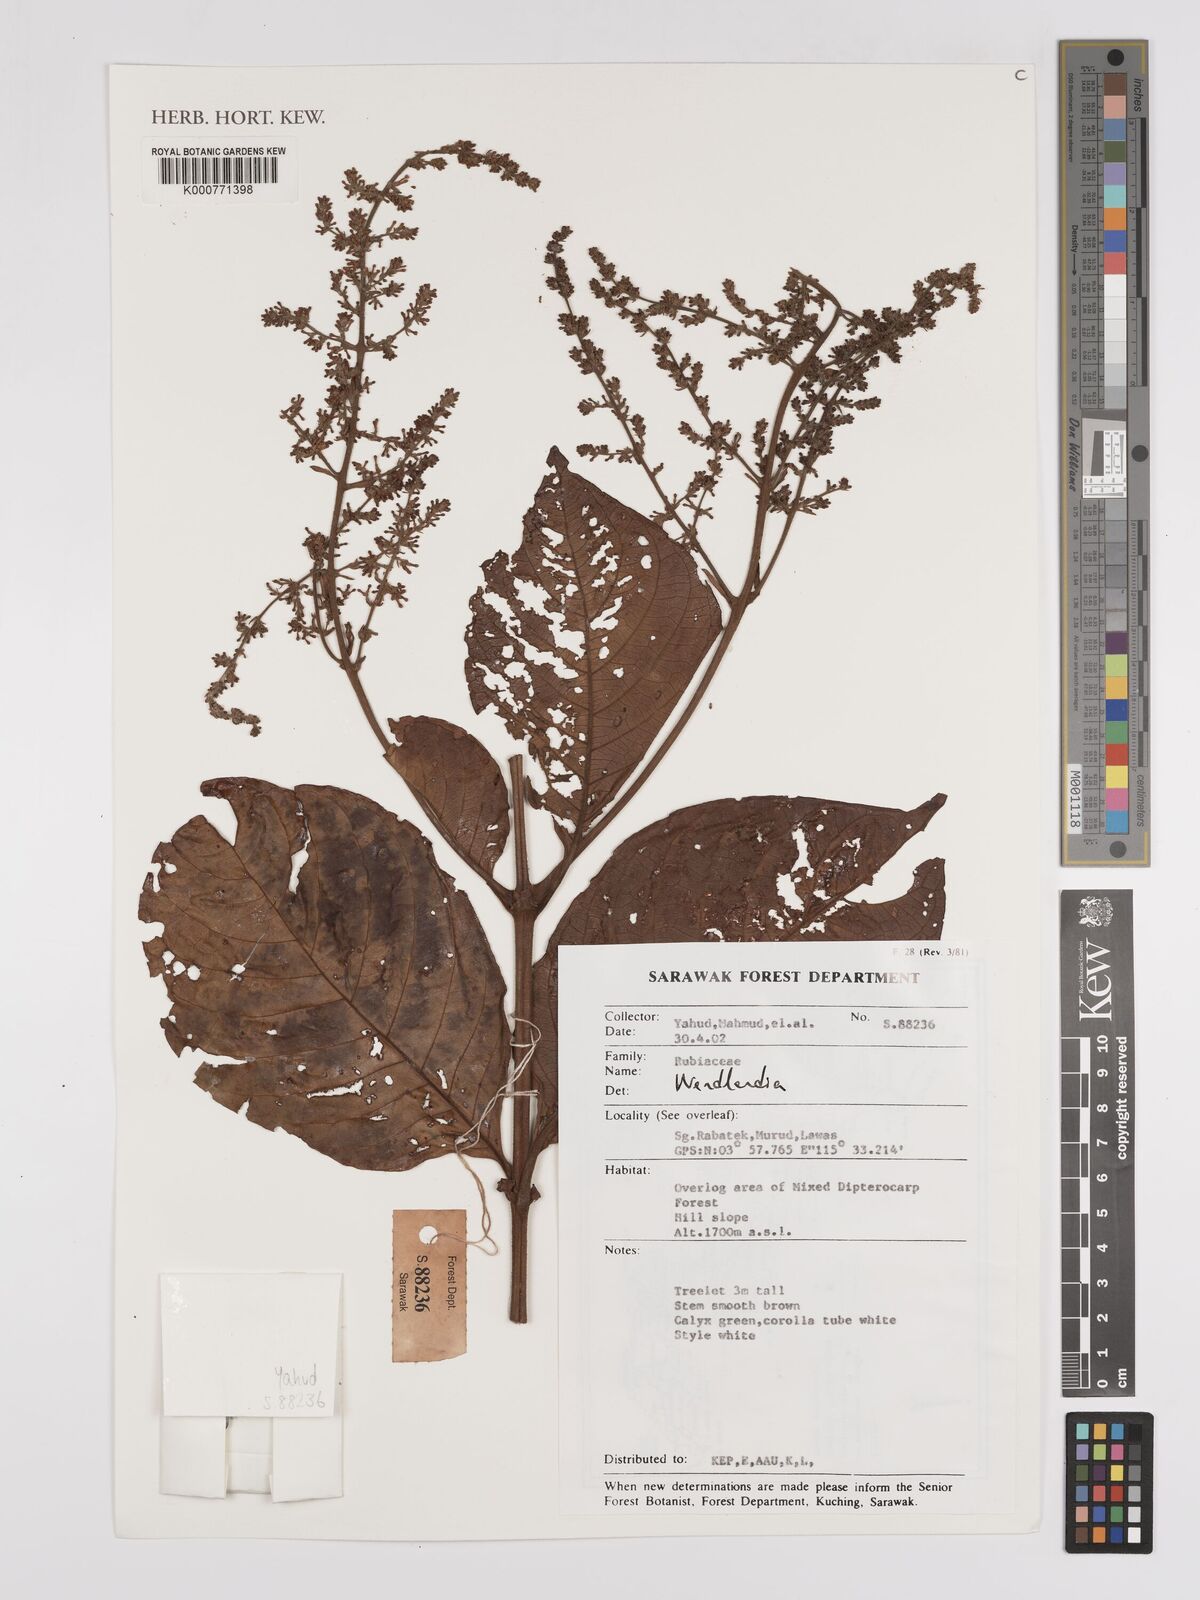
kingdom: Plantae
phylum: Tracheophyta
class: Magnoliopsida
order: Gentianales
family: Rubiaceae
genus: Wendlandia
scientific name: Wendlandia
